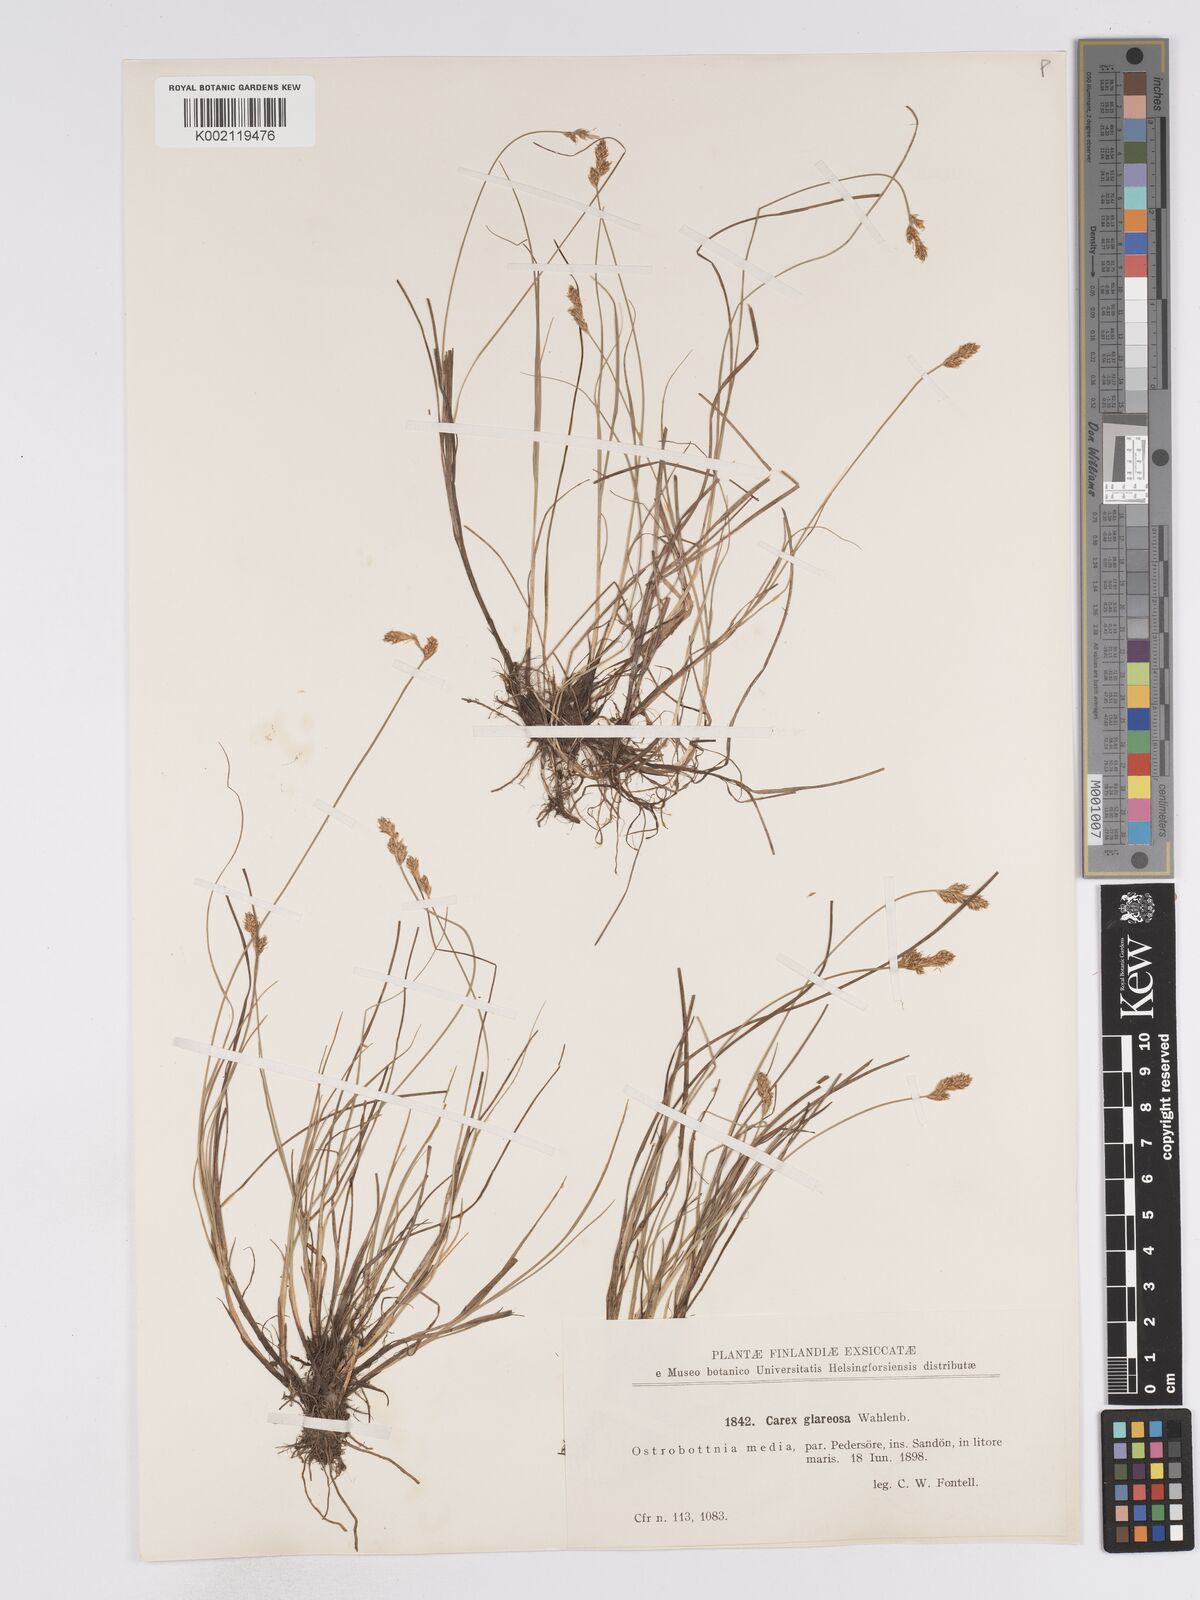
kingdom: Plantae
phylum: Tracheophyta
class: Liliopsida
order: Poales
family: Cyperaceae
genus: Carex
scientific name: Carex glareosa
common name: Clustered sedge
